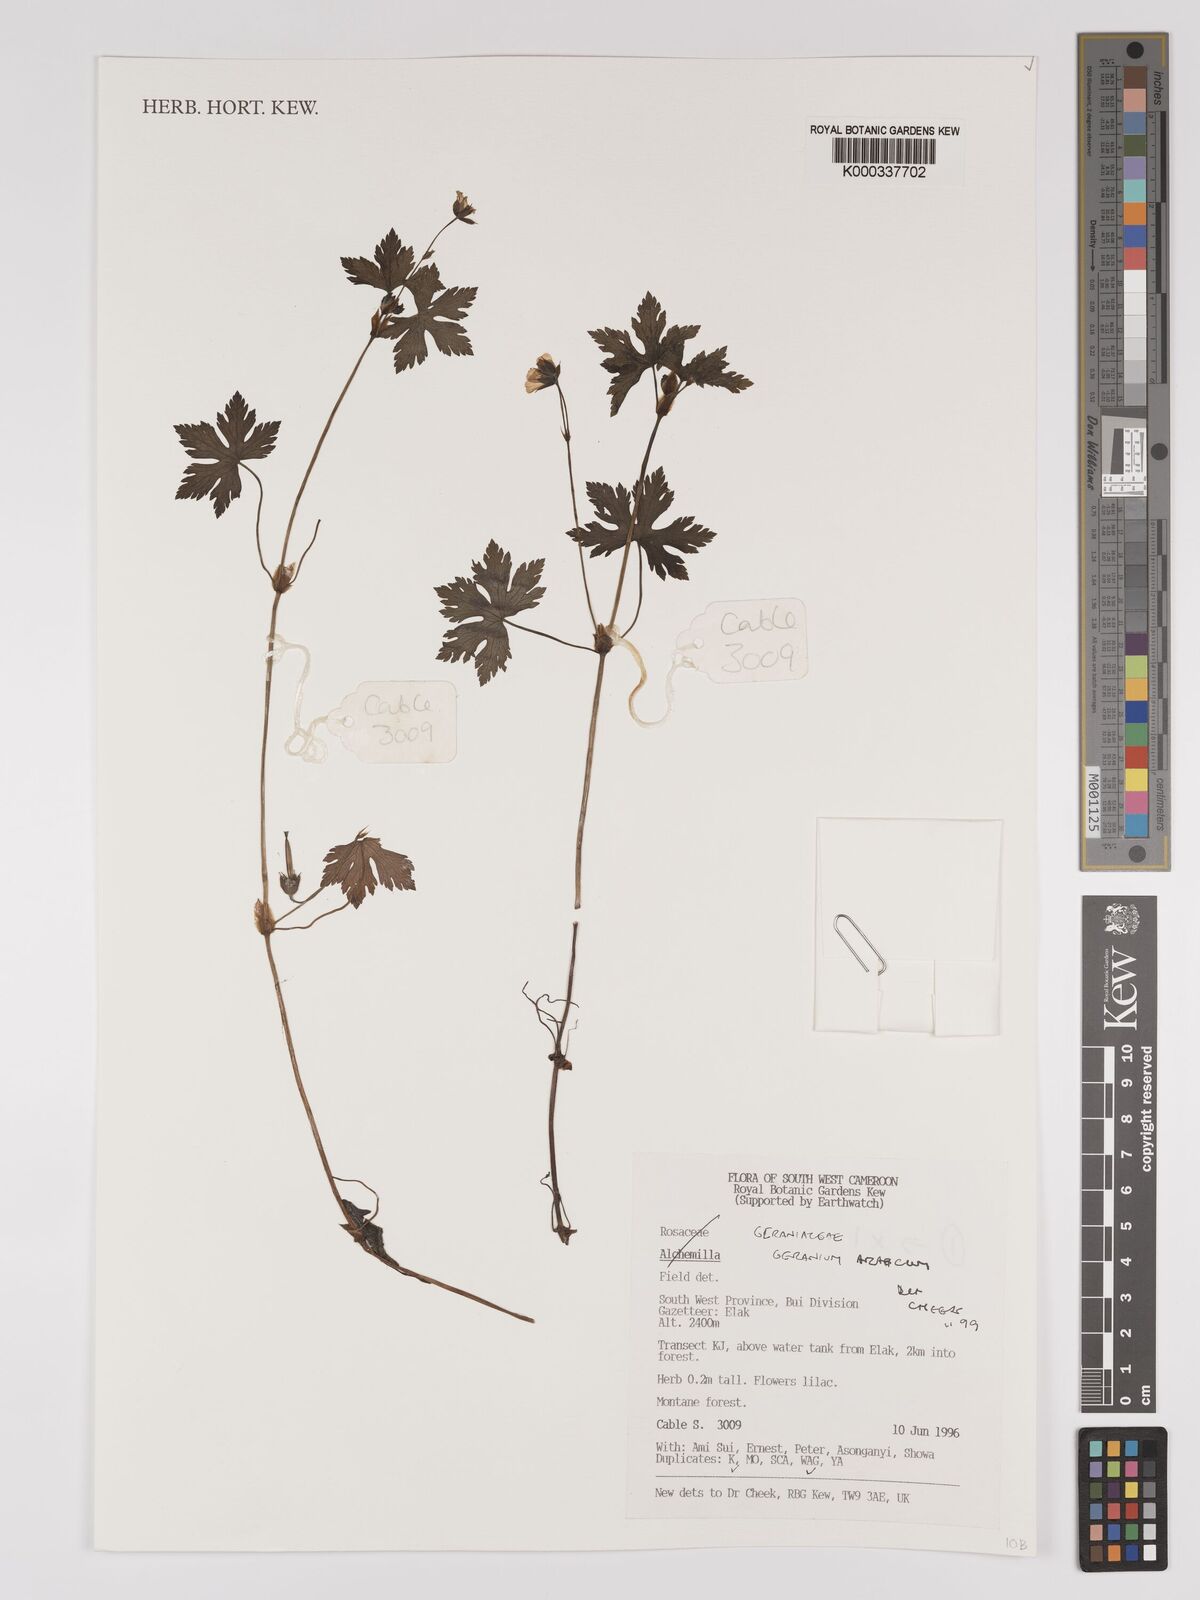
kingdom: Plantae
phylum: Tracheophyta
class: Magnoliopsida
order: Geraniales
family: Geraniaceae
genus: Geranium
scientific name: Geranium arabicum
